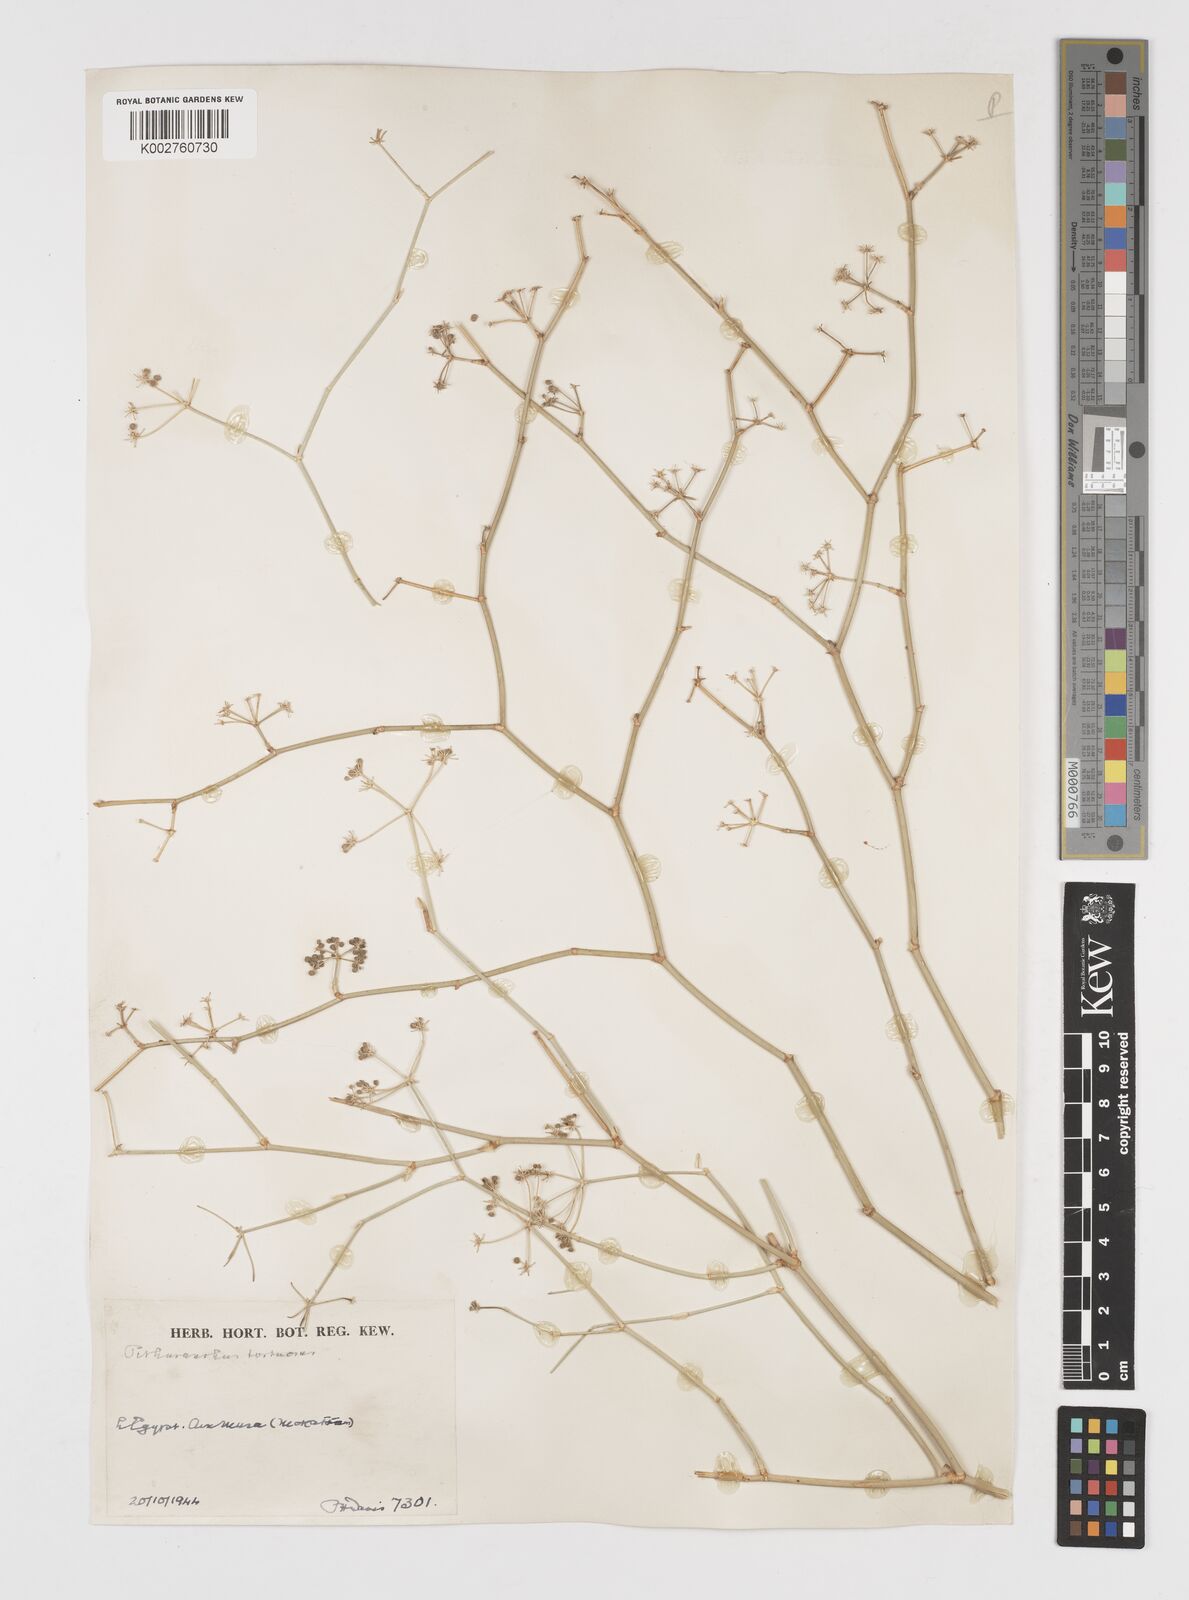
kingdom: Plantae
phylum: Tracheophyta
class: Magnoliopsida
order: Apiales
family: Apiaceae
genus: Deverra
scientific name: Deverra tortuosa
